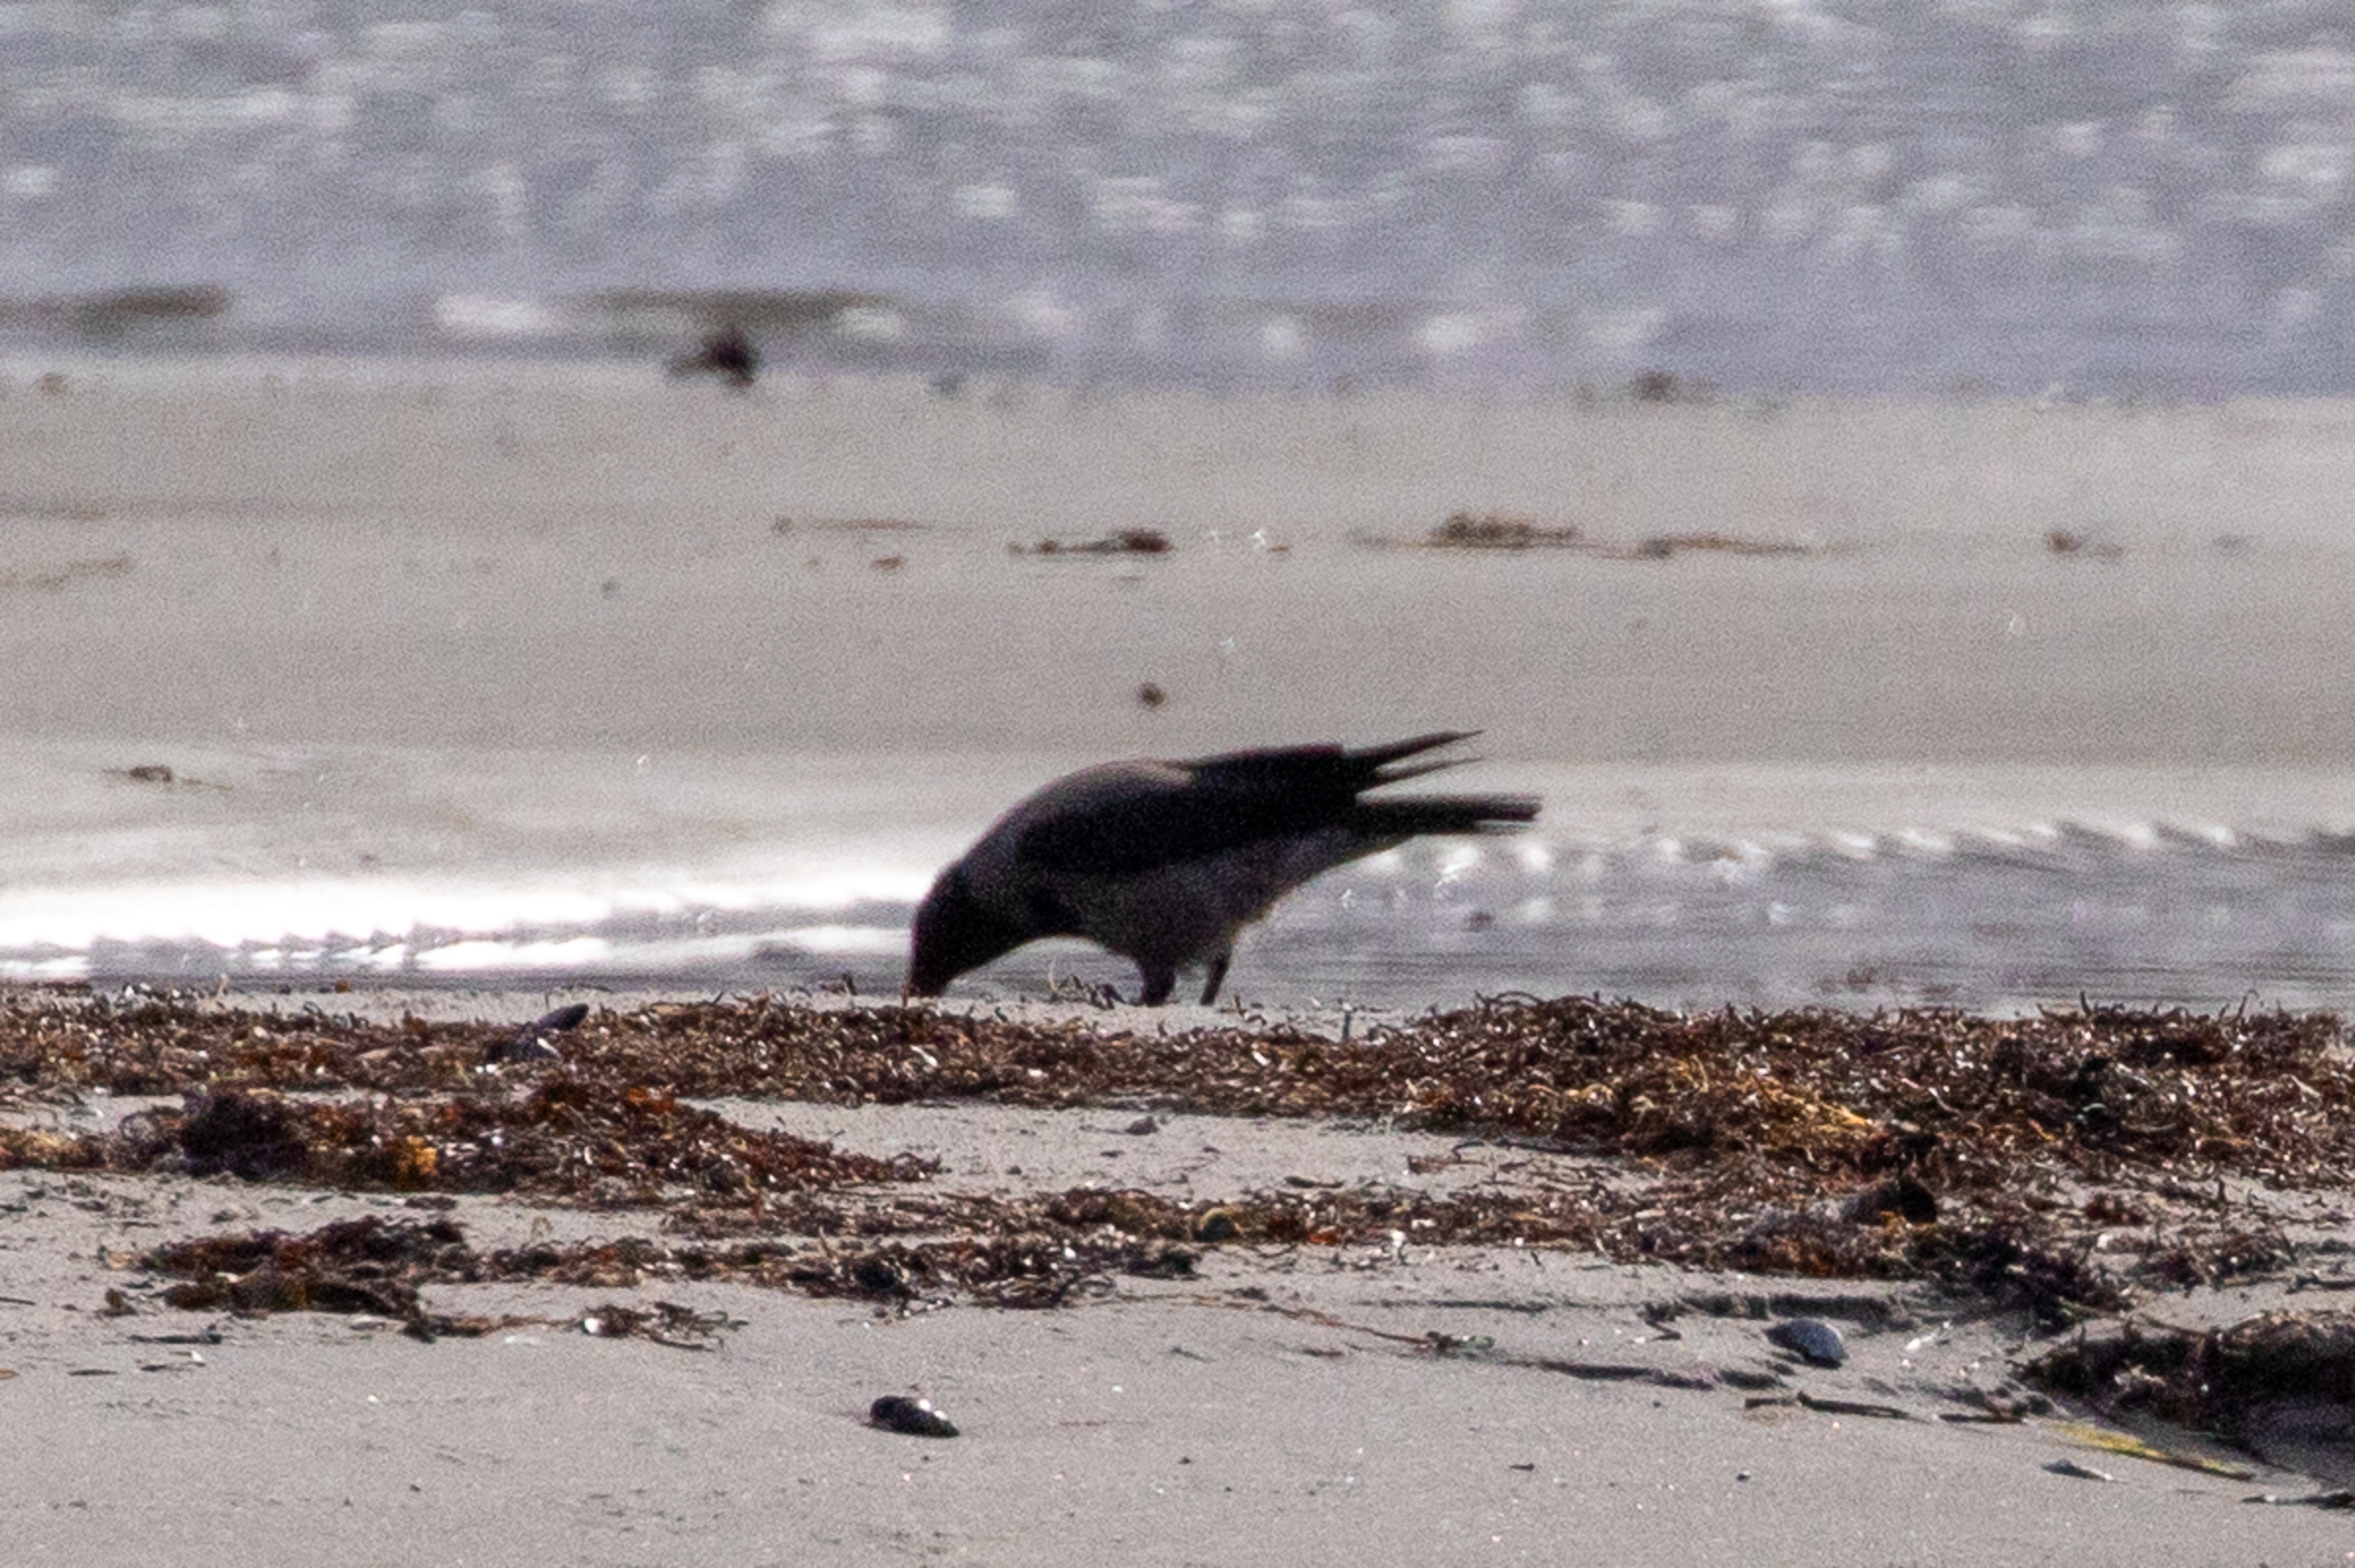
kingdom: Animalia
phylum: Chordata
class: Aves
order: Passeriformes
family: Corvidae
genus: Corvus
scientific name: Corvus cornix
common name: Gråkrage
